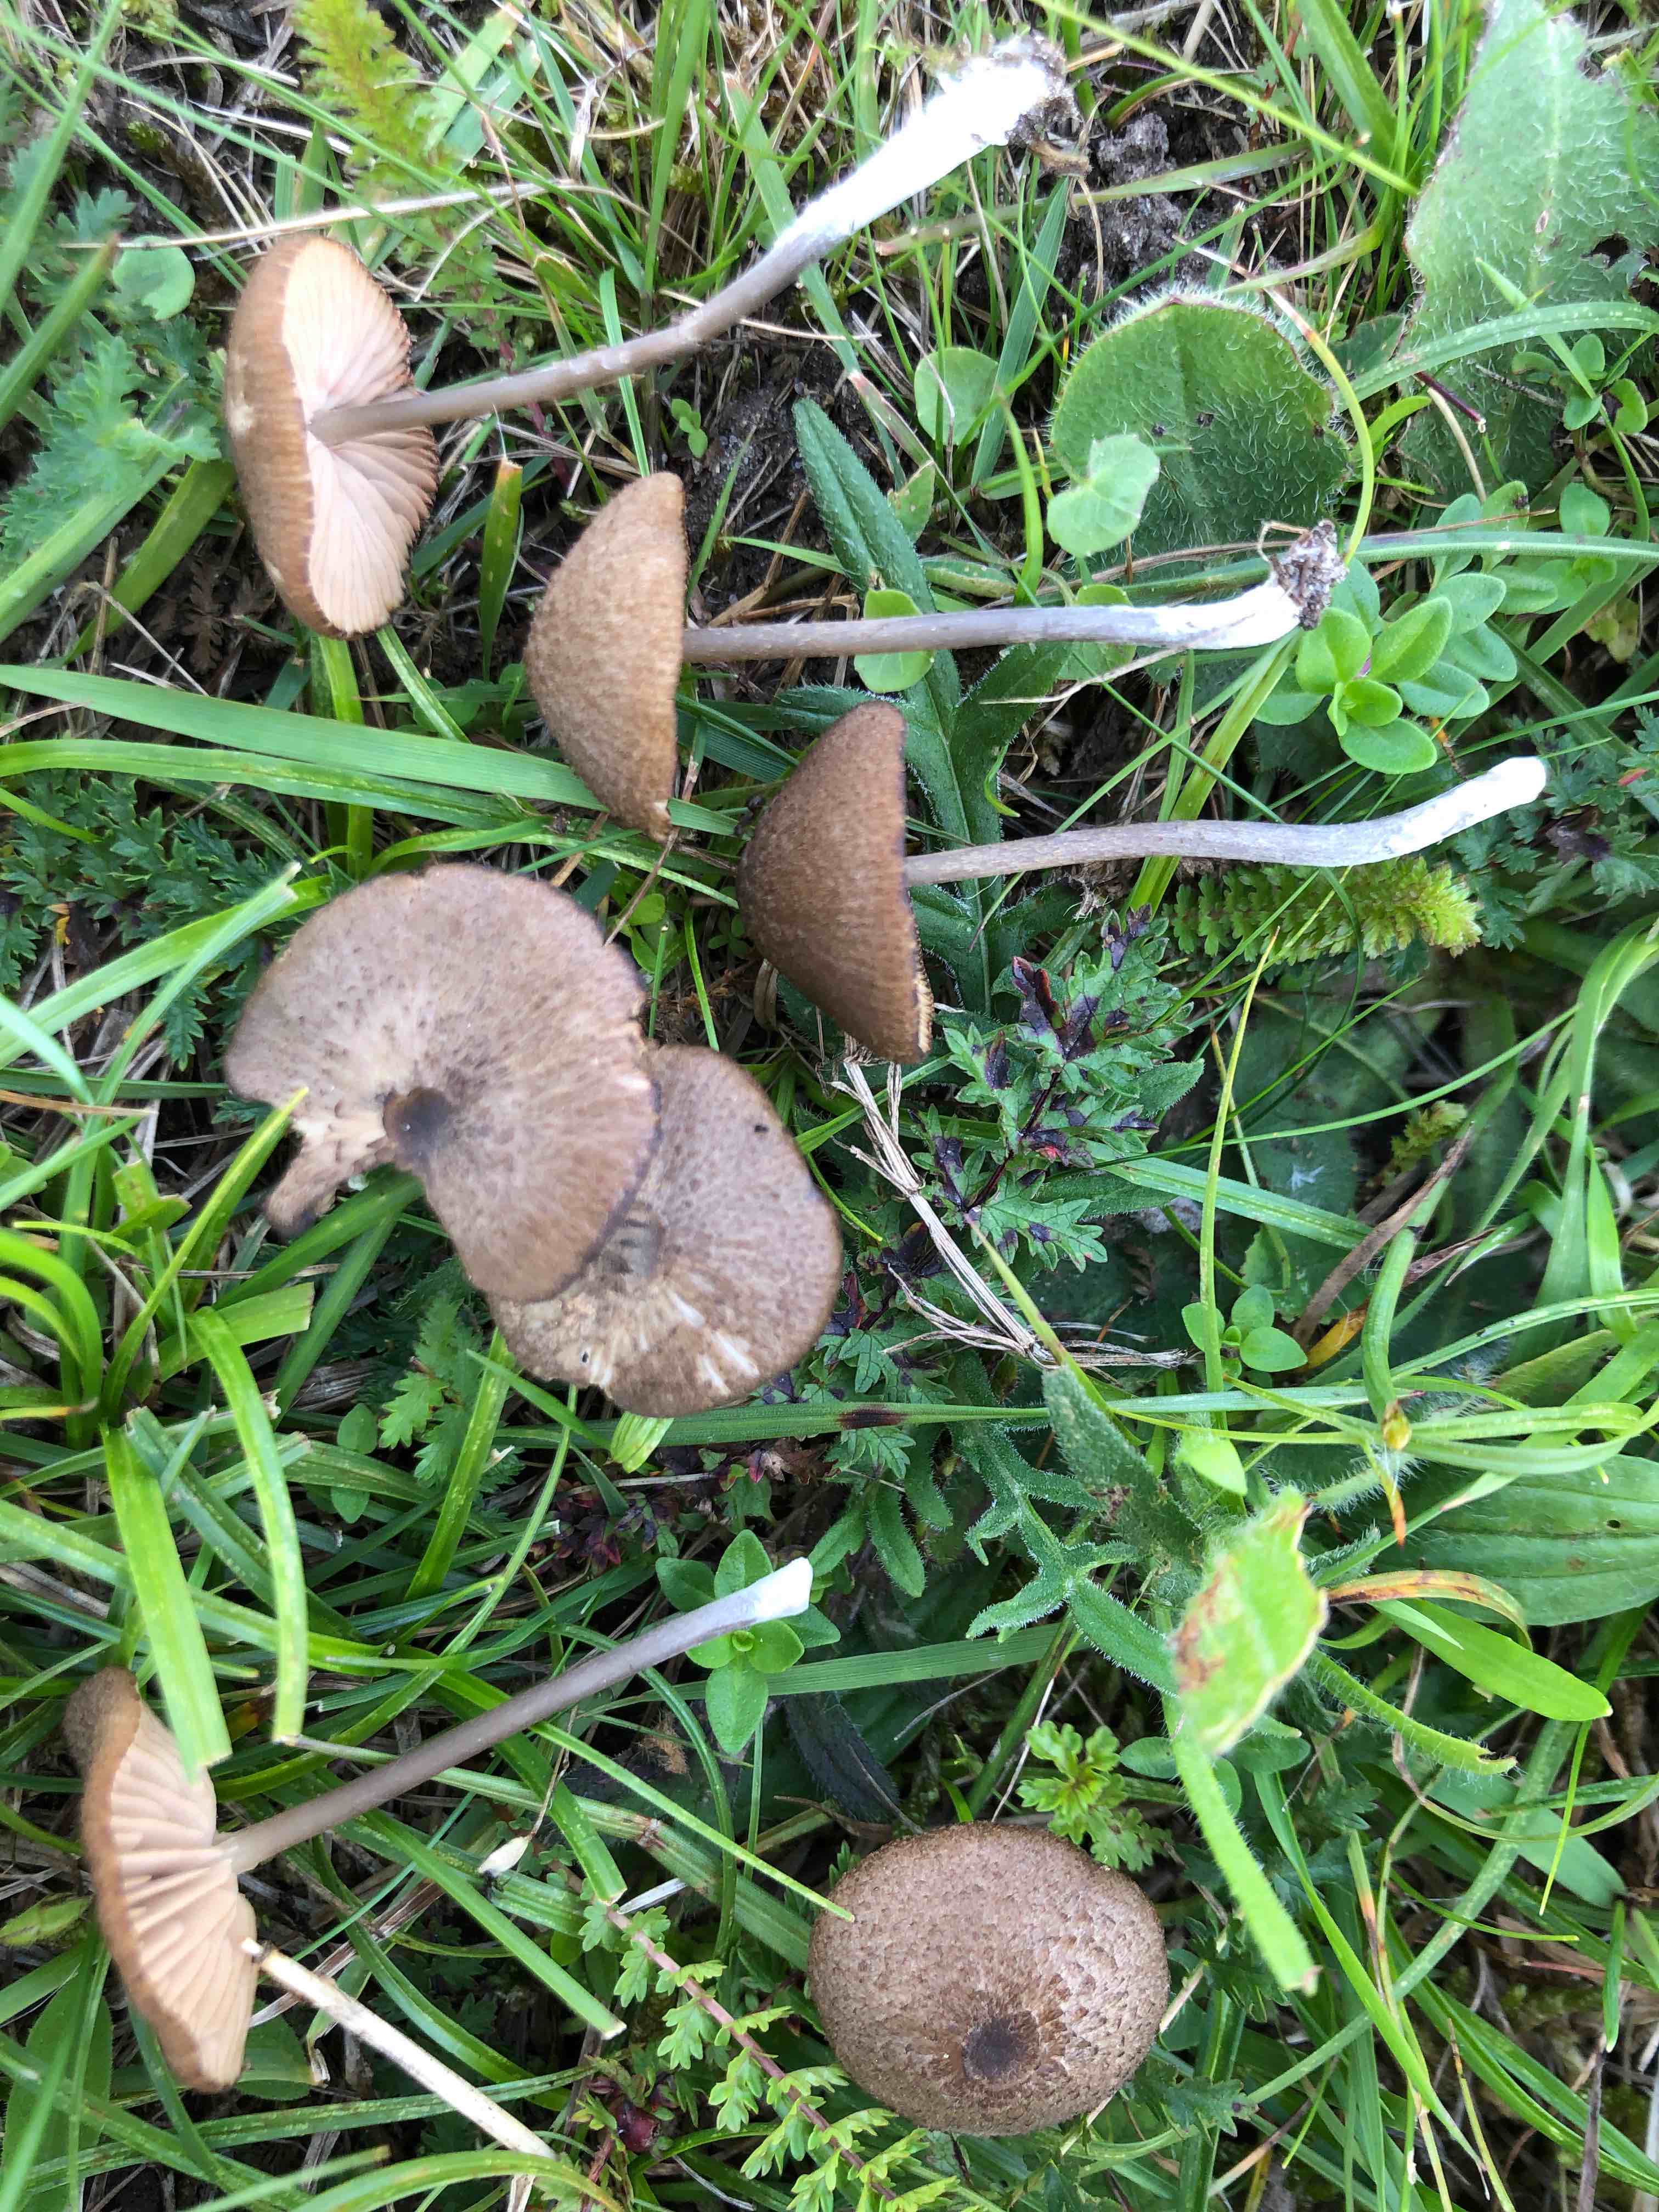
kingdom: Fungi
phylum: Basidiomycota
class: Agaricomycetes
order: Agaricales
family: Entolomataceae
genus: Entoloma
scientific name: Entoloma glaucobasis
